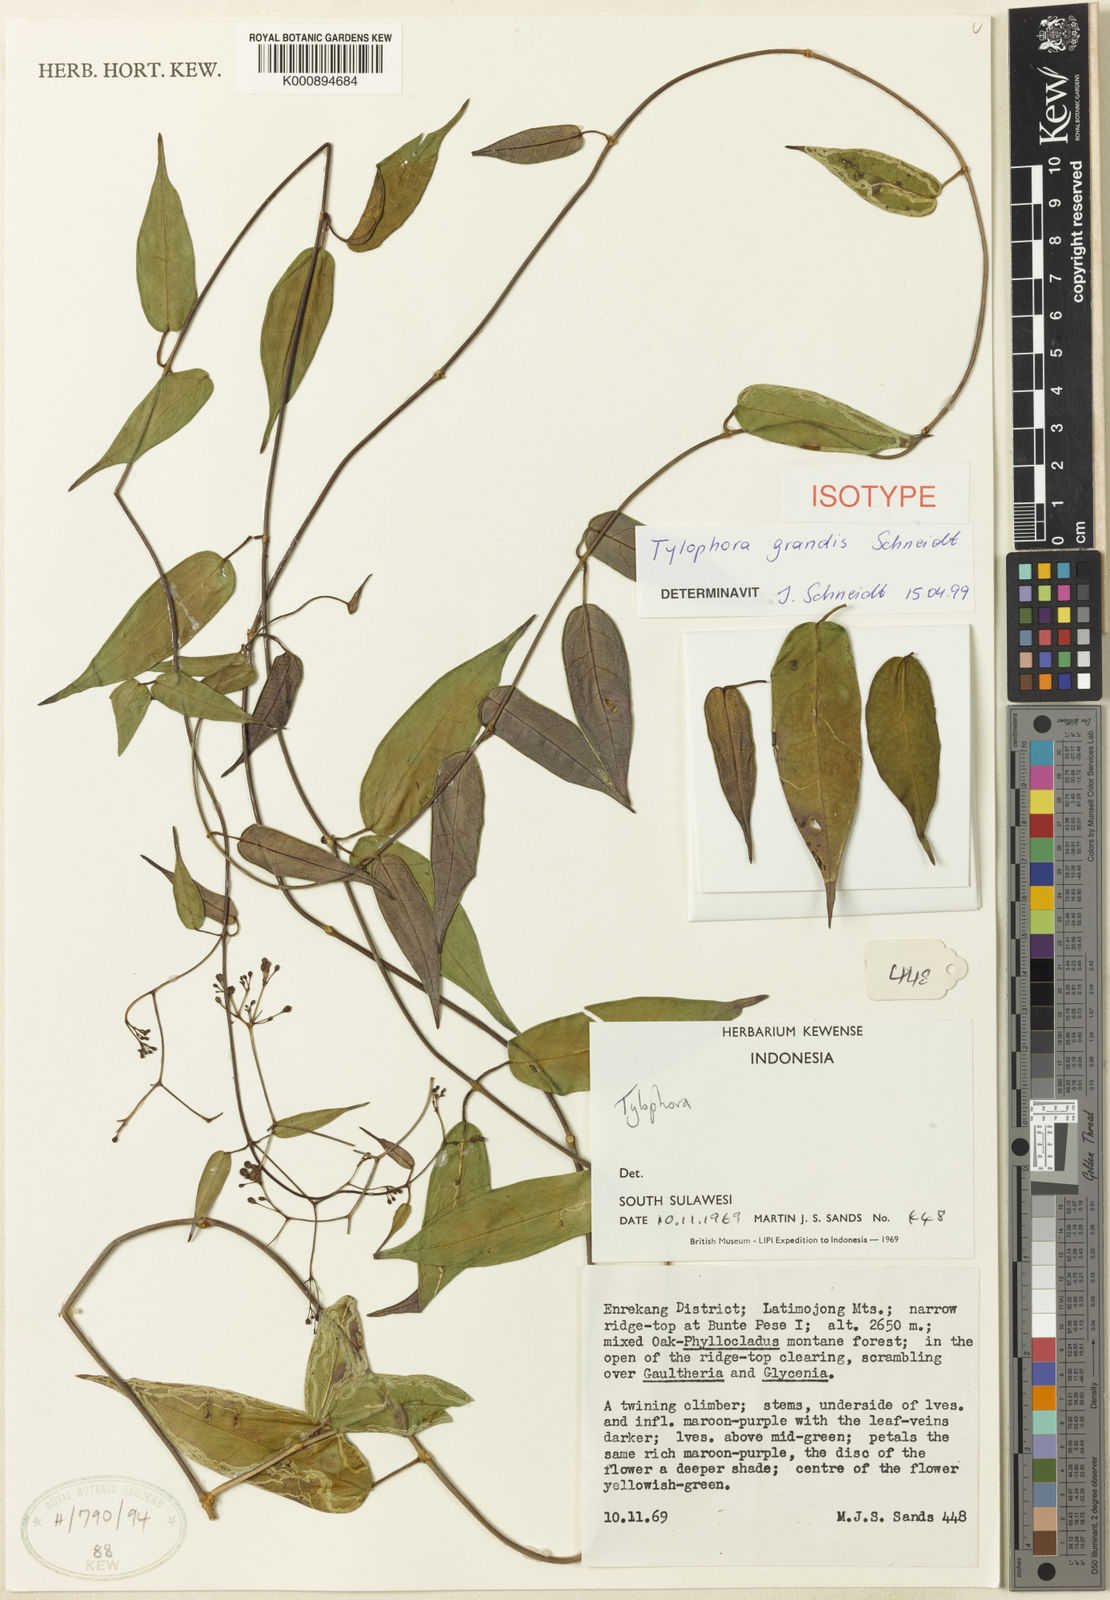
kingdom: Plantae
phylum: Tracheophyta
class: Magnoliopsida
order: Gentianales
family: Apocynaceae
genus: Vincetoxicum
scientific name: Vincetoxicum
